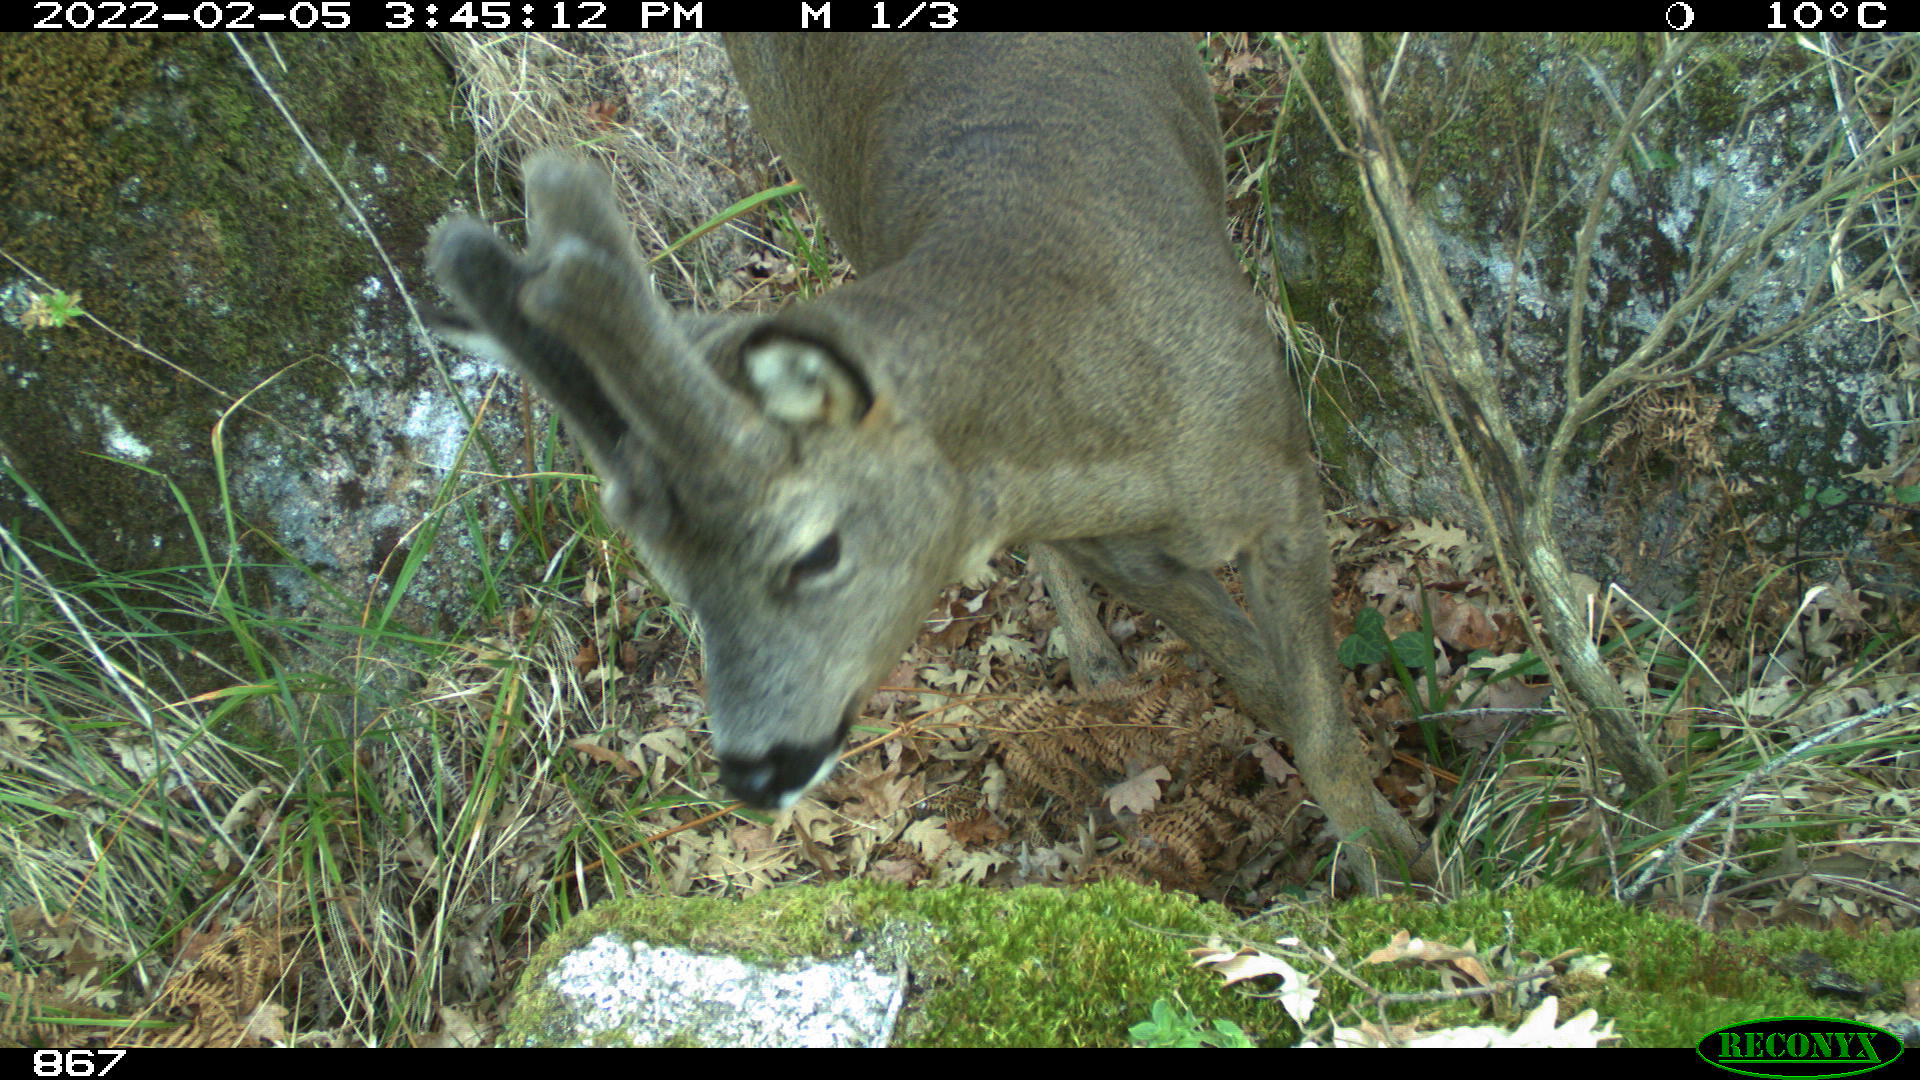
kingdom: Animalia
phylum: Chordata
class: Mammalia
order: Artiodactyla
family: Cervidae
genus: Capreolus
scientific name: Capreolus capreolus
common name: Western roe deer
